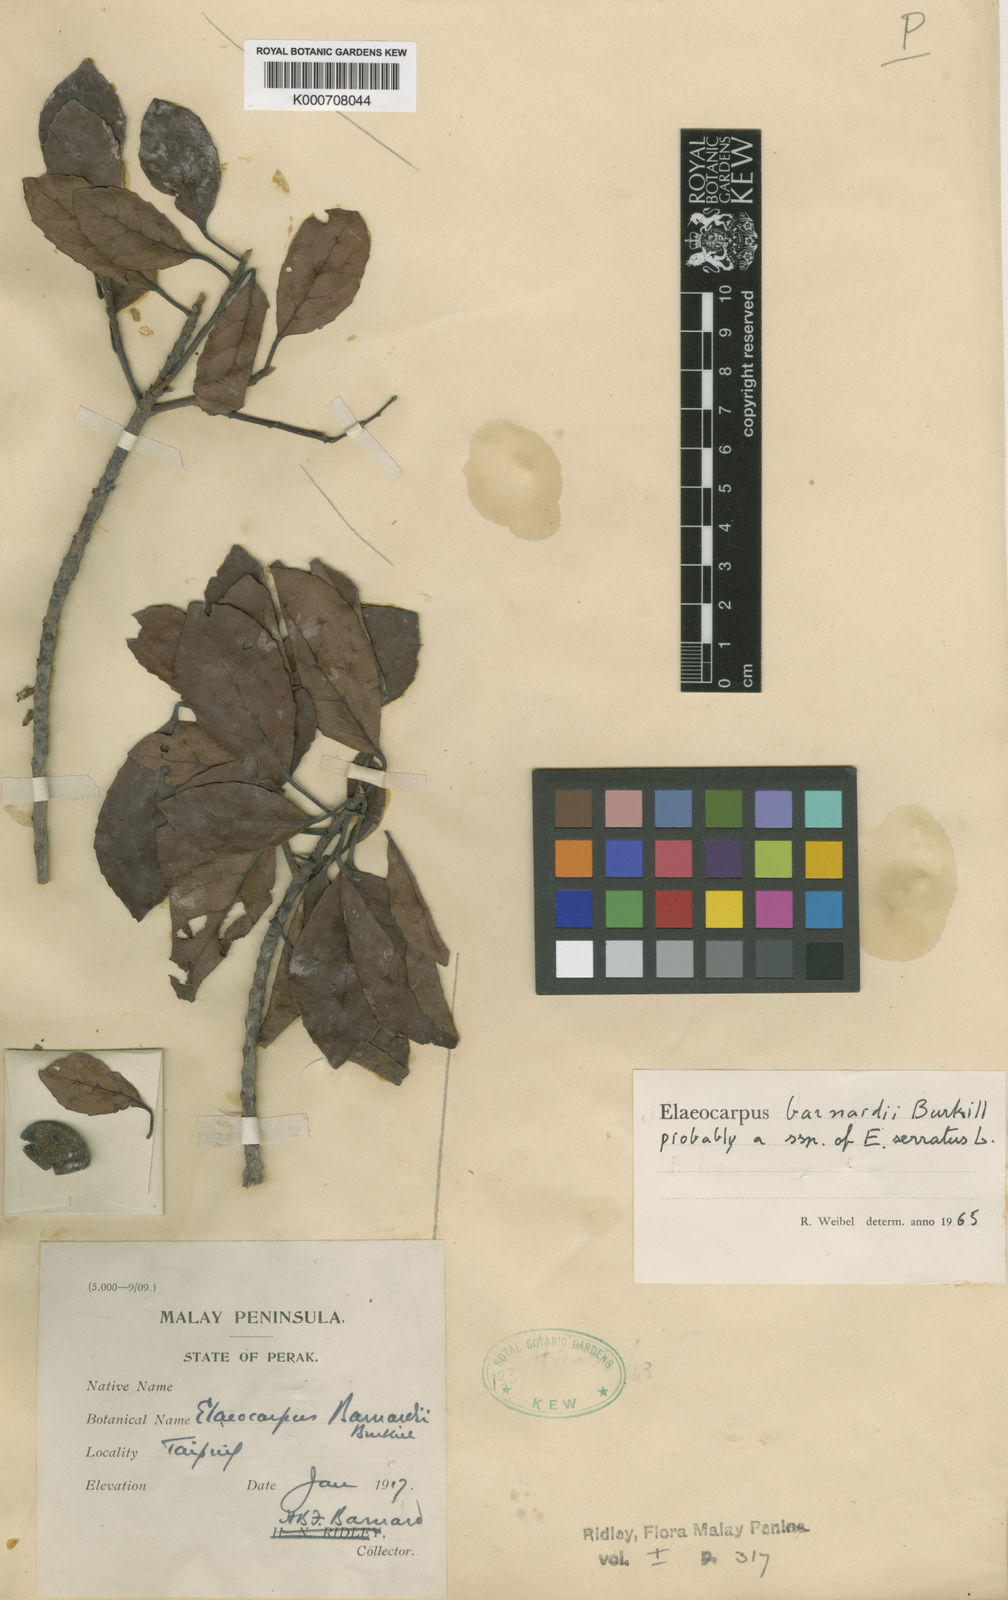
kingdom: Plantae
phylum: Tracheophyta
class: Magnoliopsida
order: Oxalidales
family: Elaeocarpaceae
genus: Elaeocarpus
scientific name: Elaeocarpus serratus
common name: Ceylon-olive
